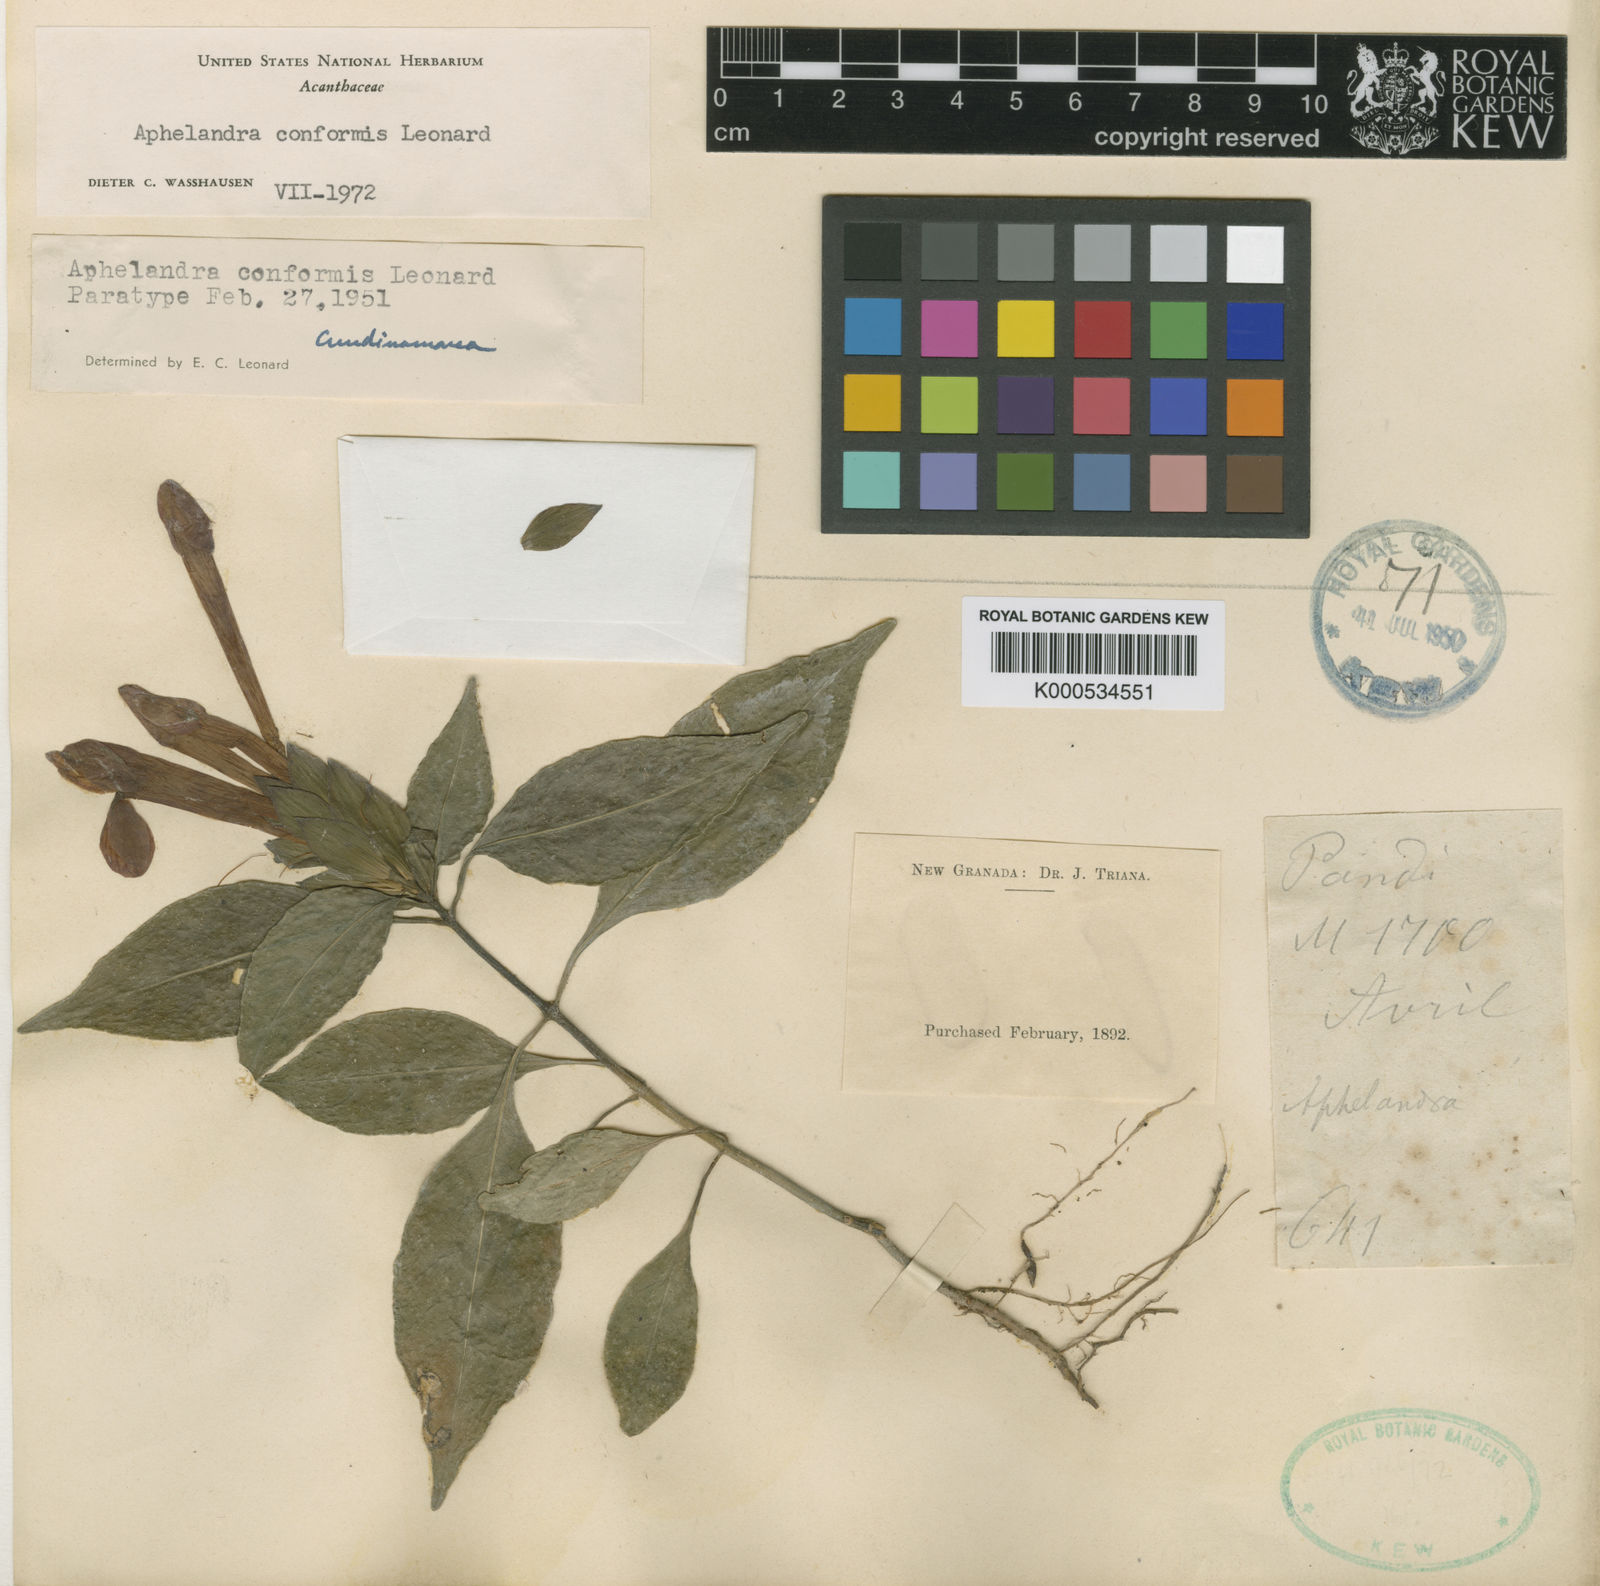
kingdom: Plantae
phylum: Tracheophyta
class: Magnoliopsida
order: Lamiales
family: Acanthaceae
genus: Aphelandra
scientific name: Aphelandra conformis
